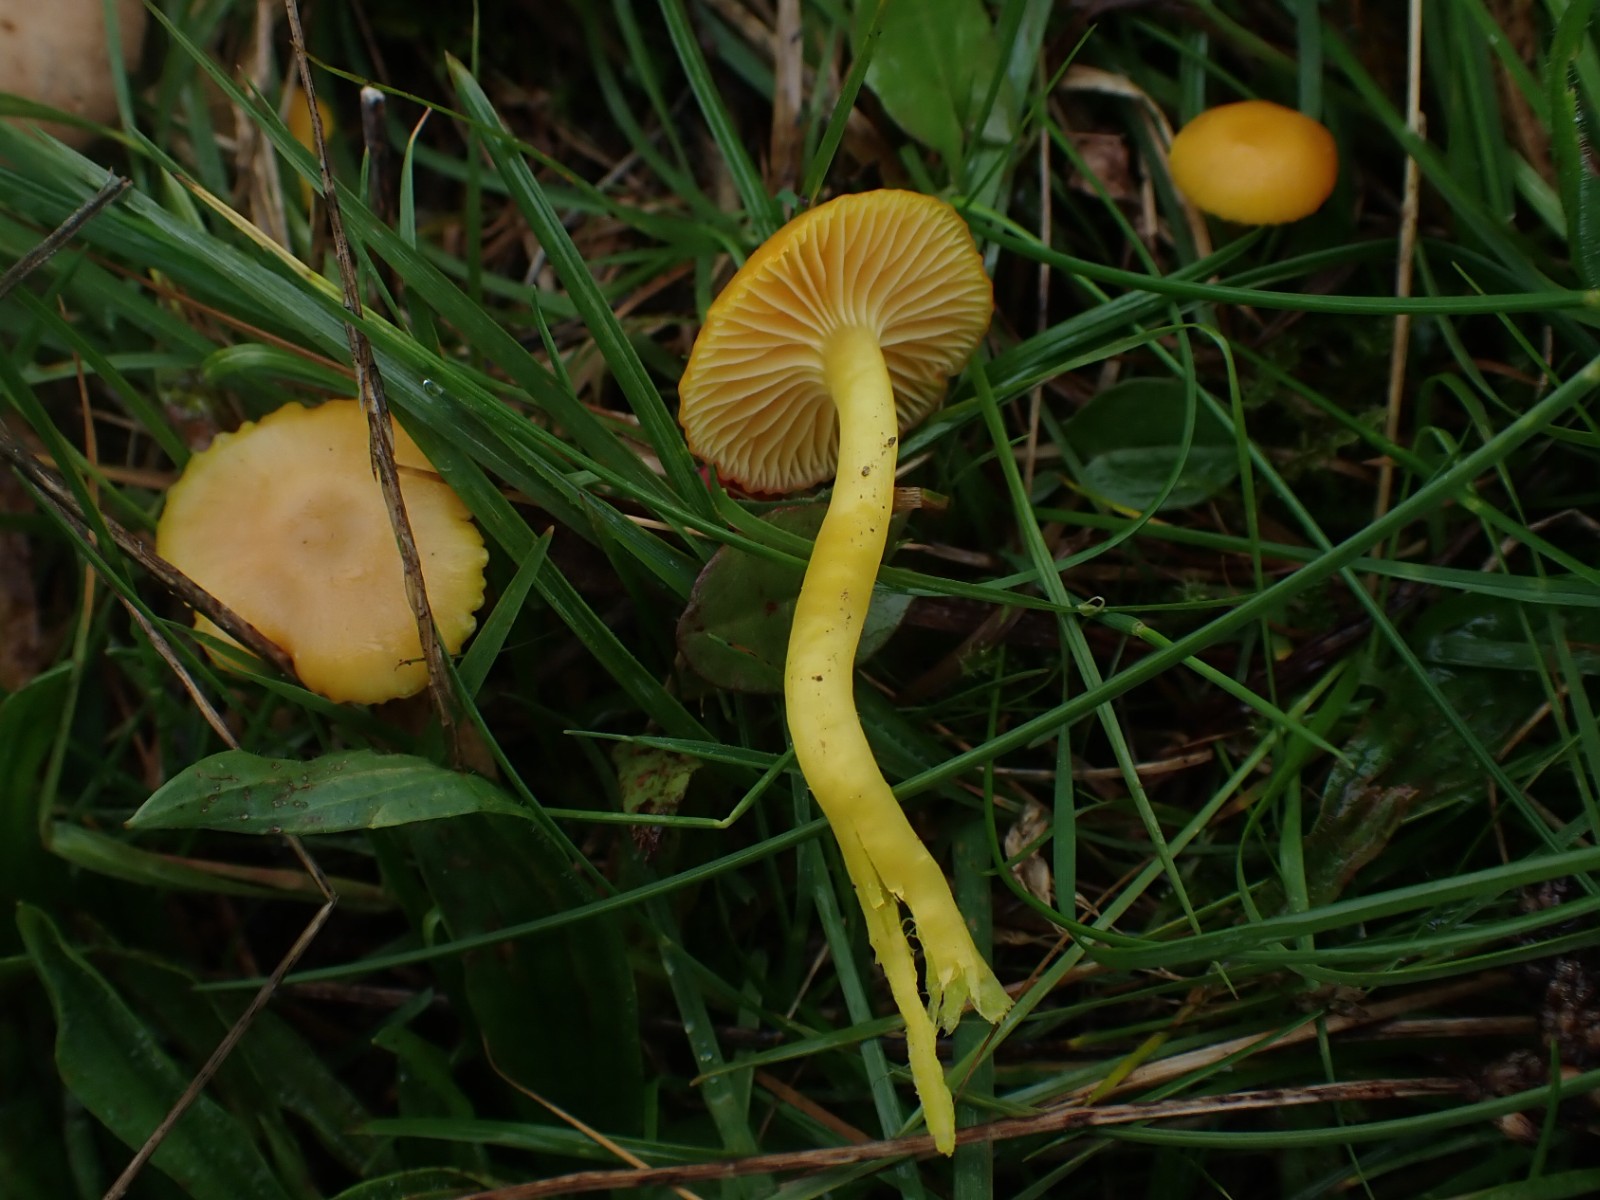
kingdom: Fungi
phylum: Basidiomycota
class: Agaricomycetes
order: Agaricales
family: Hygrophoraceae
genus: Hygrocybe
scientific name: Hygrocybe ceracea
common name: voksgul vokshat
